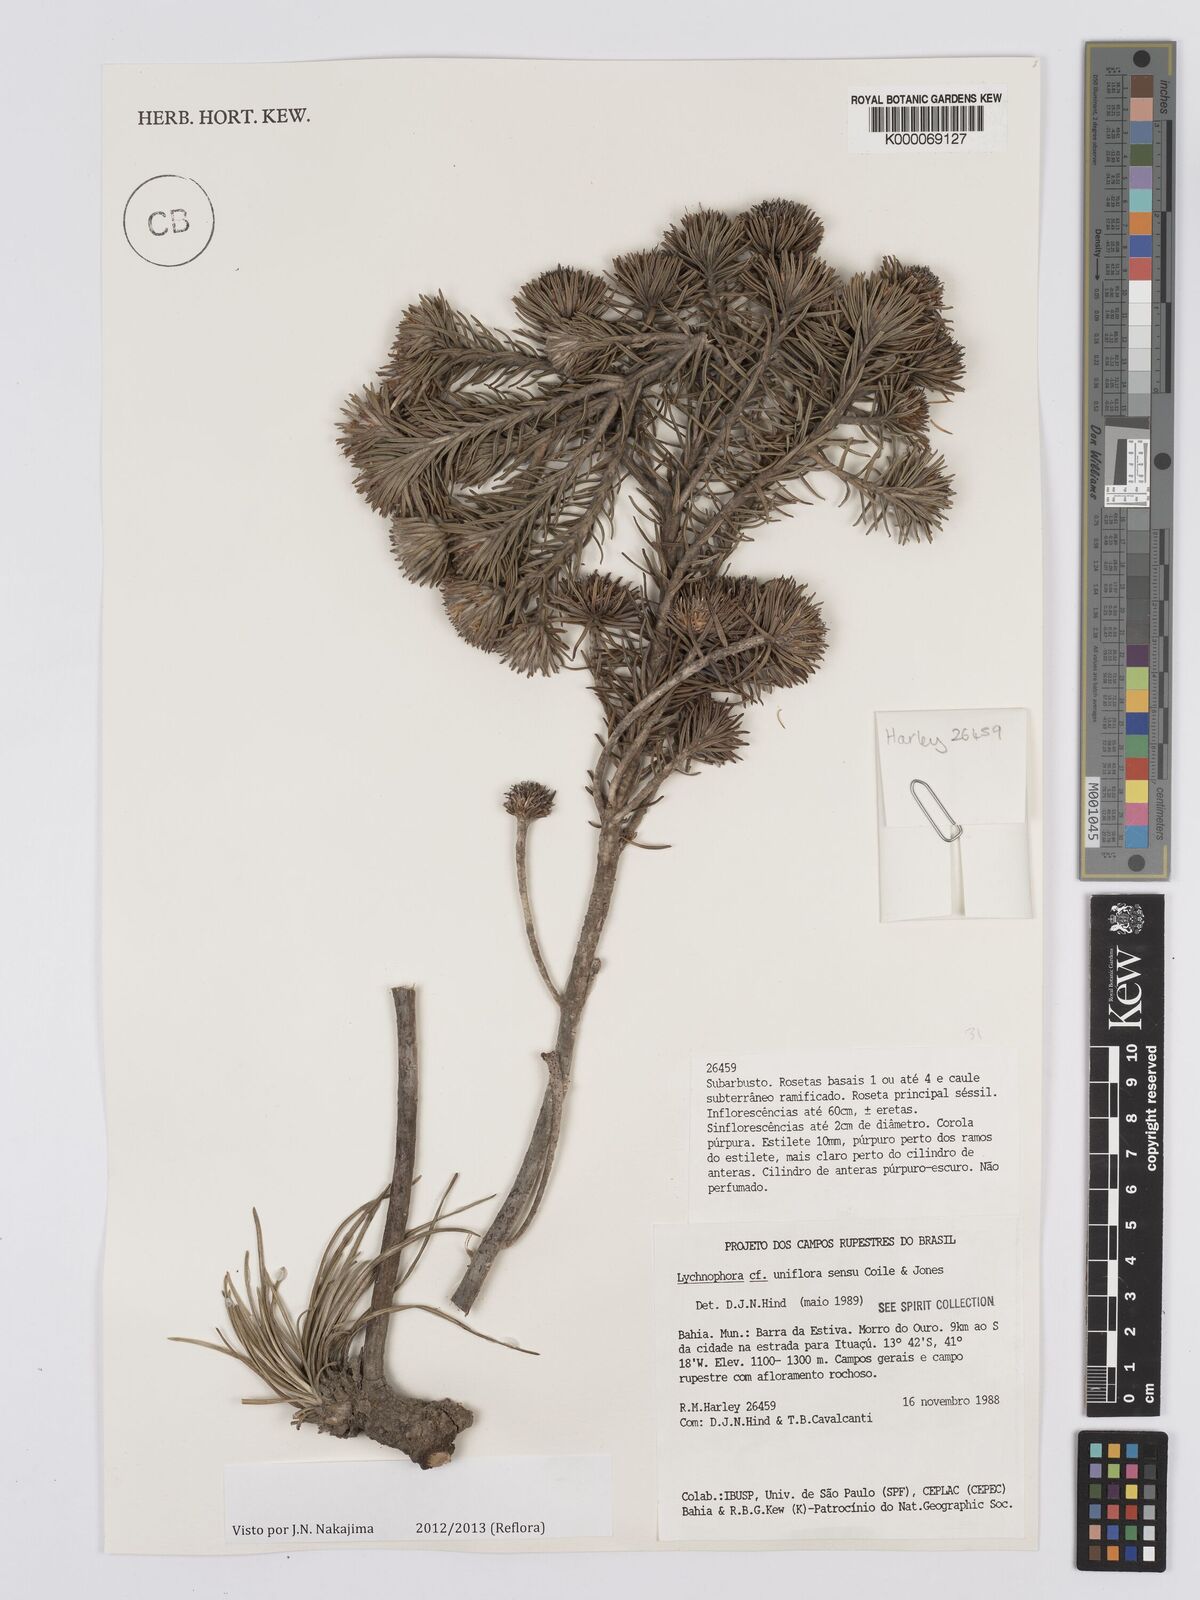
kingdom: Plantae
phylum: Tracheophyta
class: Magnoliopsida
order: Asterales
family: Asteraceae
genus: Lychnophora
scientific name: Lychnophora uniflora
